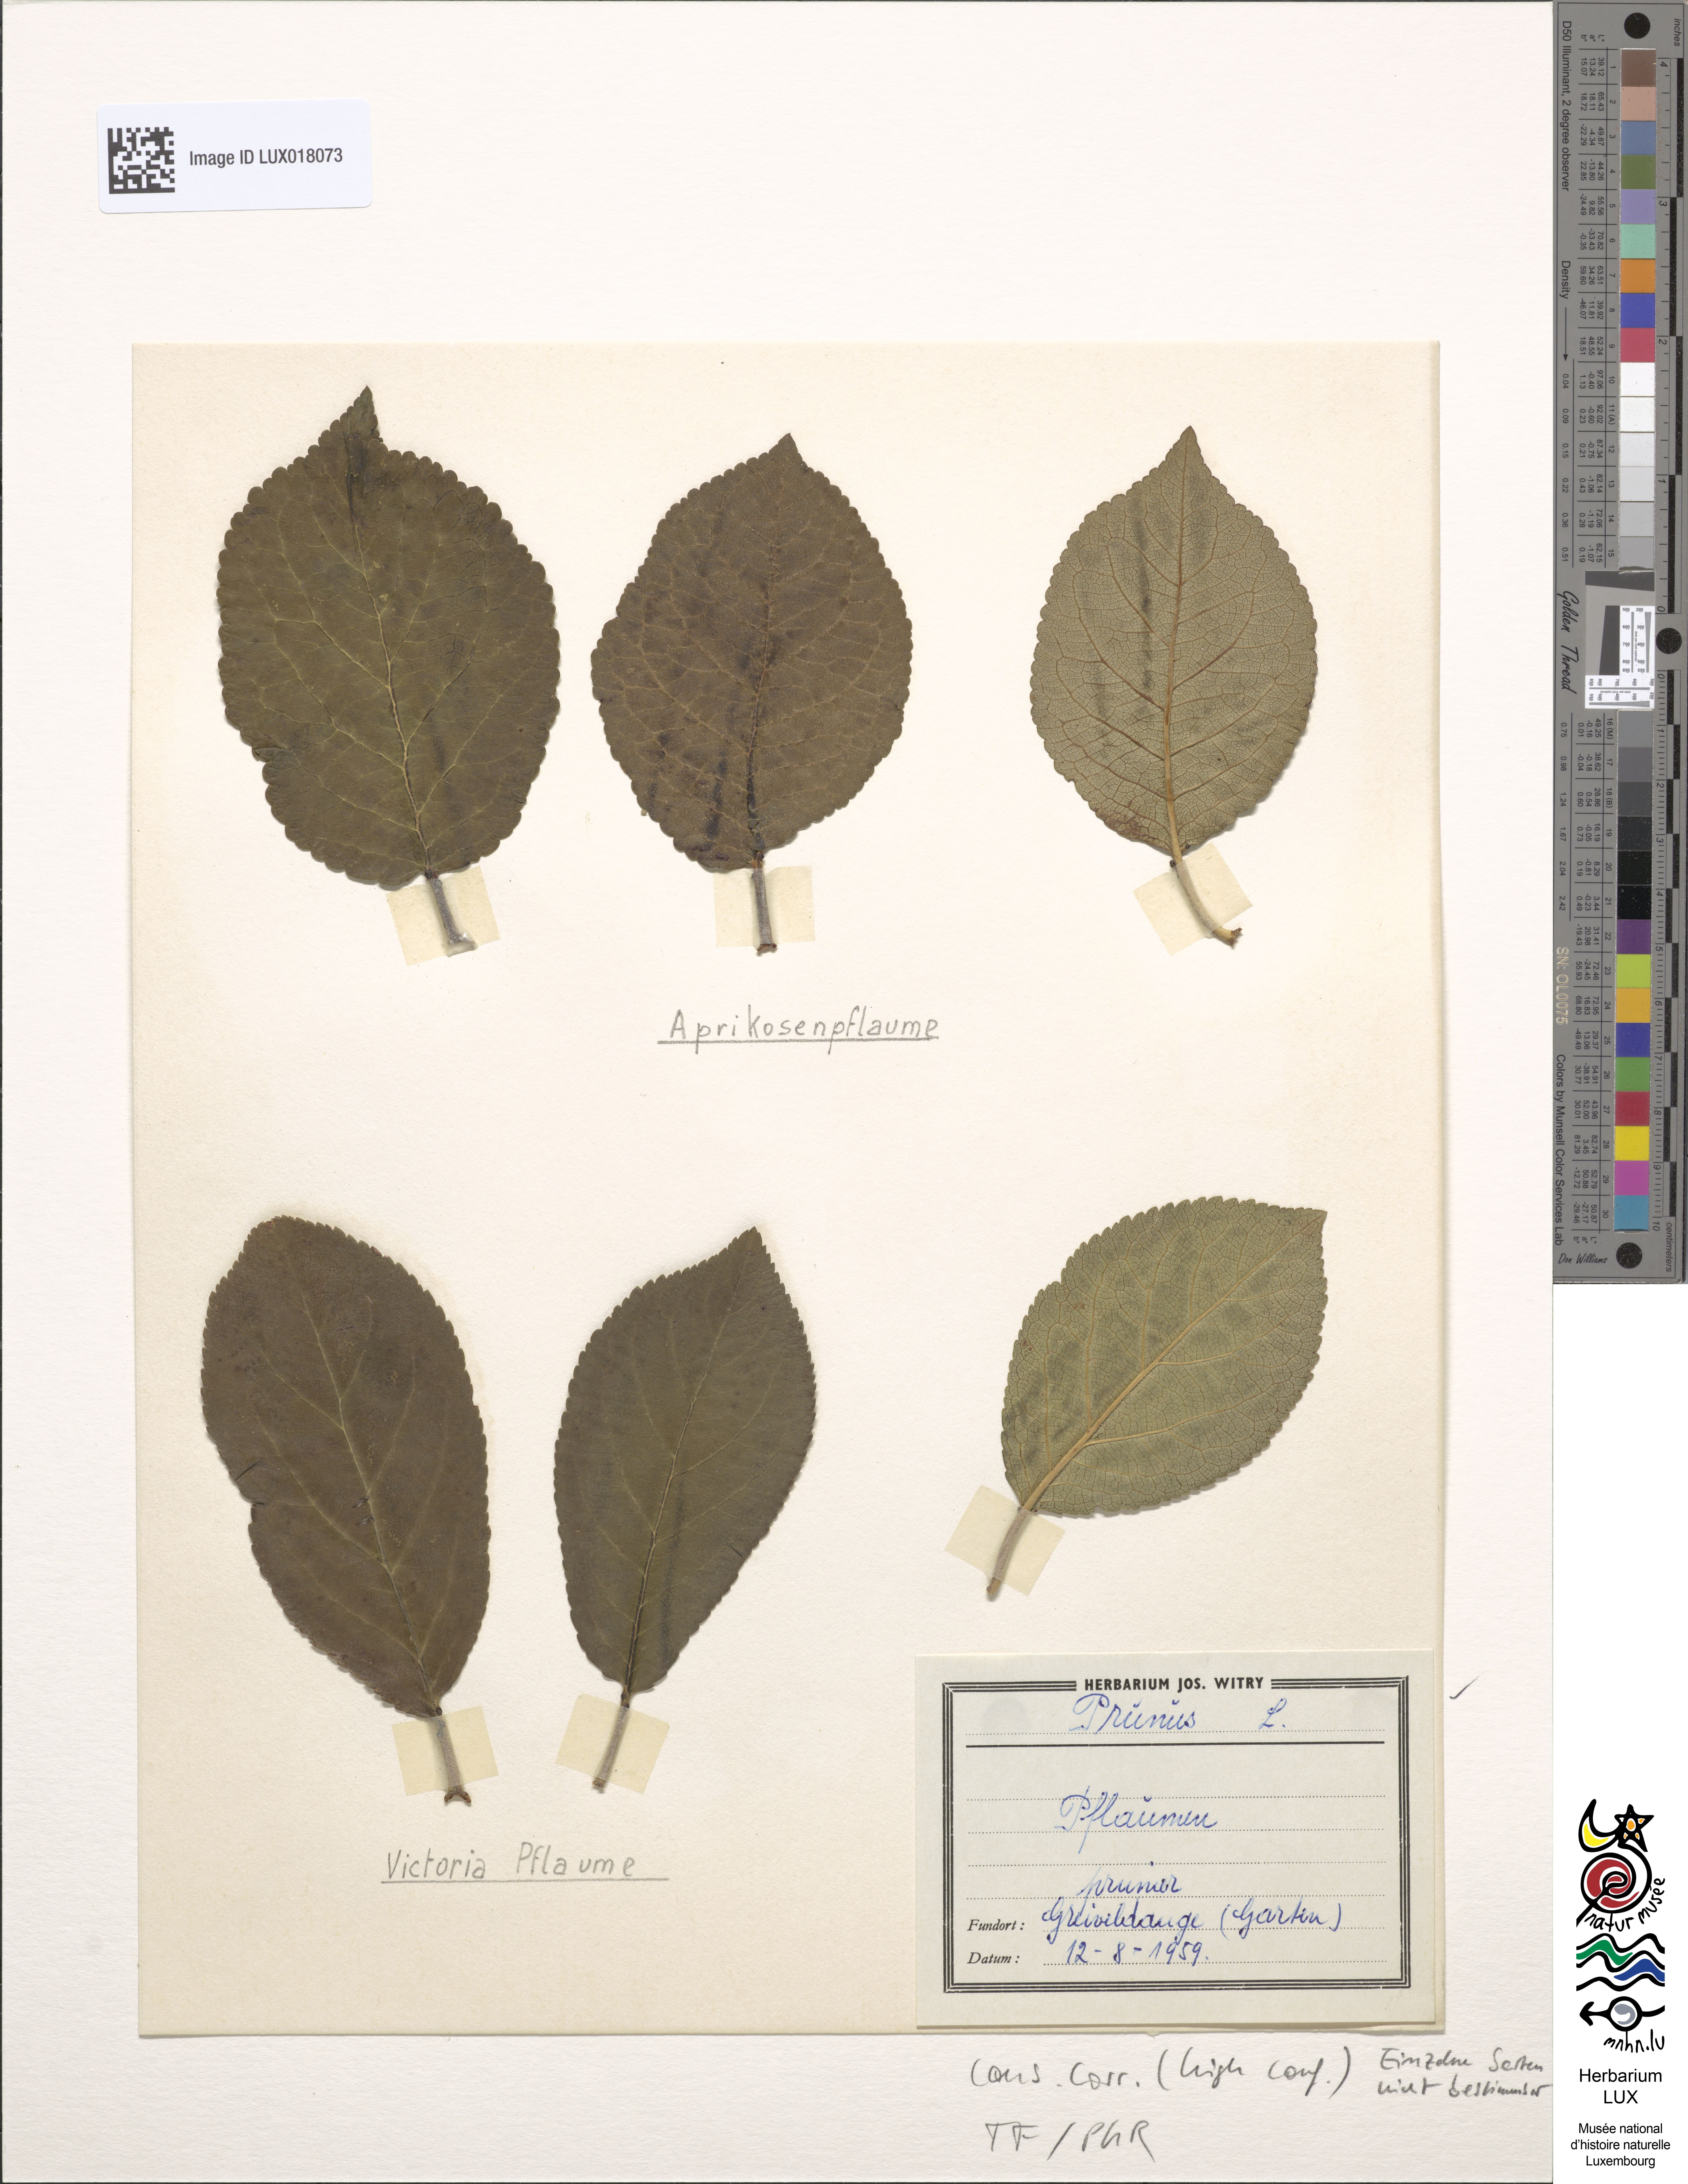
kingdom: Plantae
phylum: Tracheophyta
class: Magnoliopsida
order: Rosales
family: Rosaceae
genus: Prunus
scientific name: Prunus
